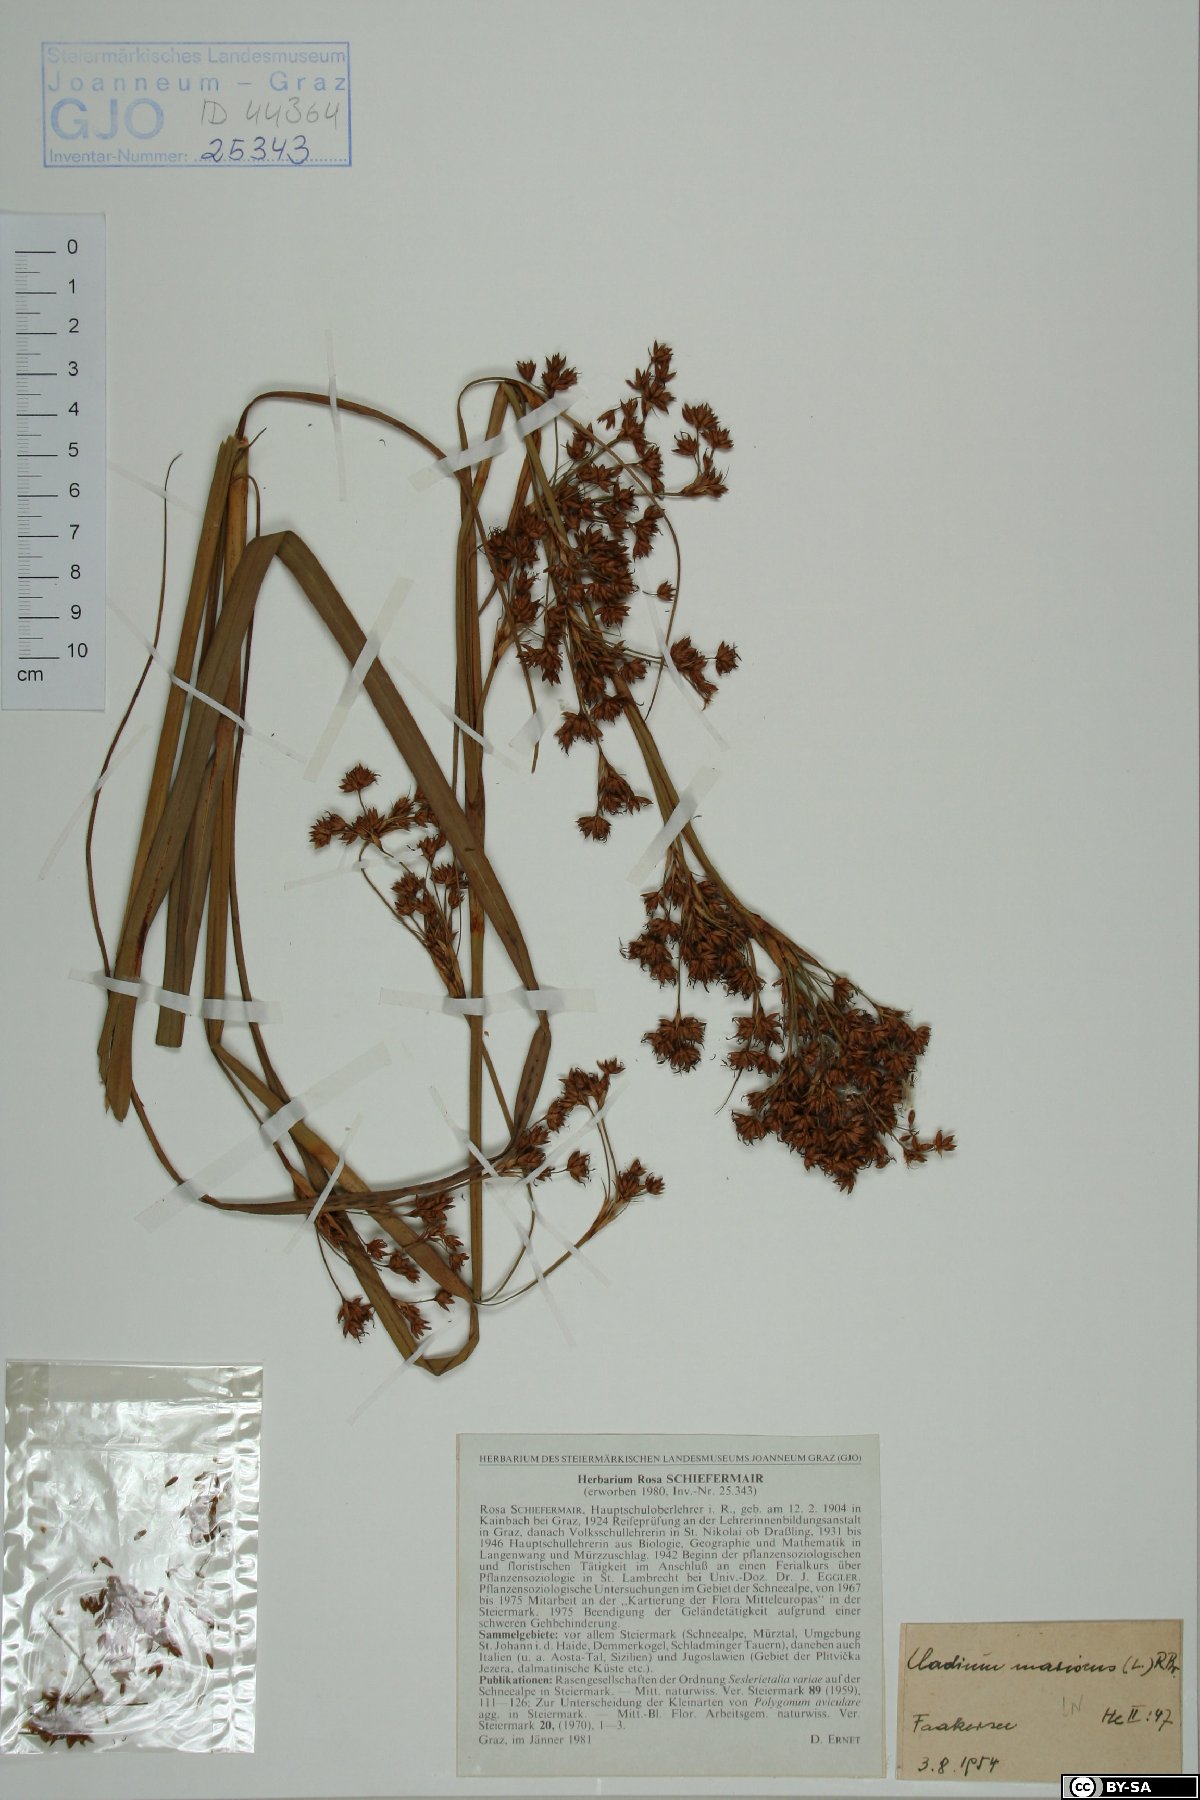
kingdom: Plantae
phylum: Tracheophyta
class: Liliopsida
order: Poales
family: Cyperaceae
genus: Cladium
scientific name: Cladium mariscus
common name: Great fen-sedge
